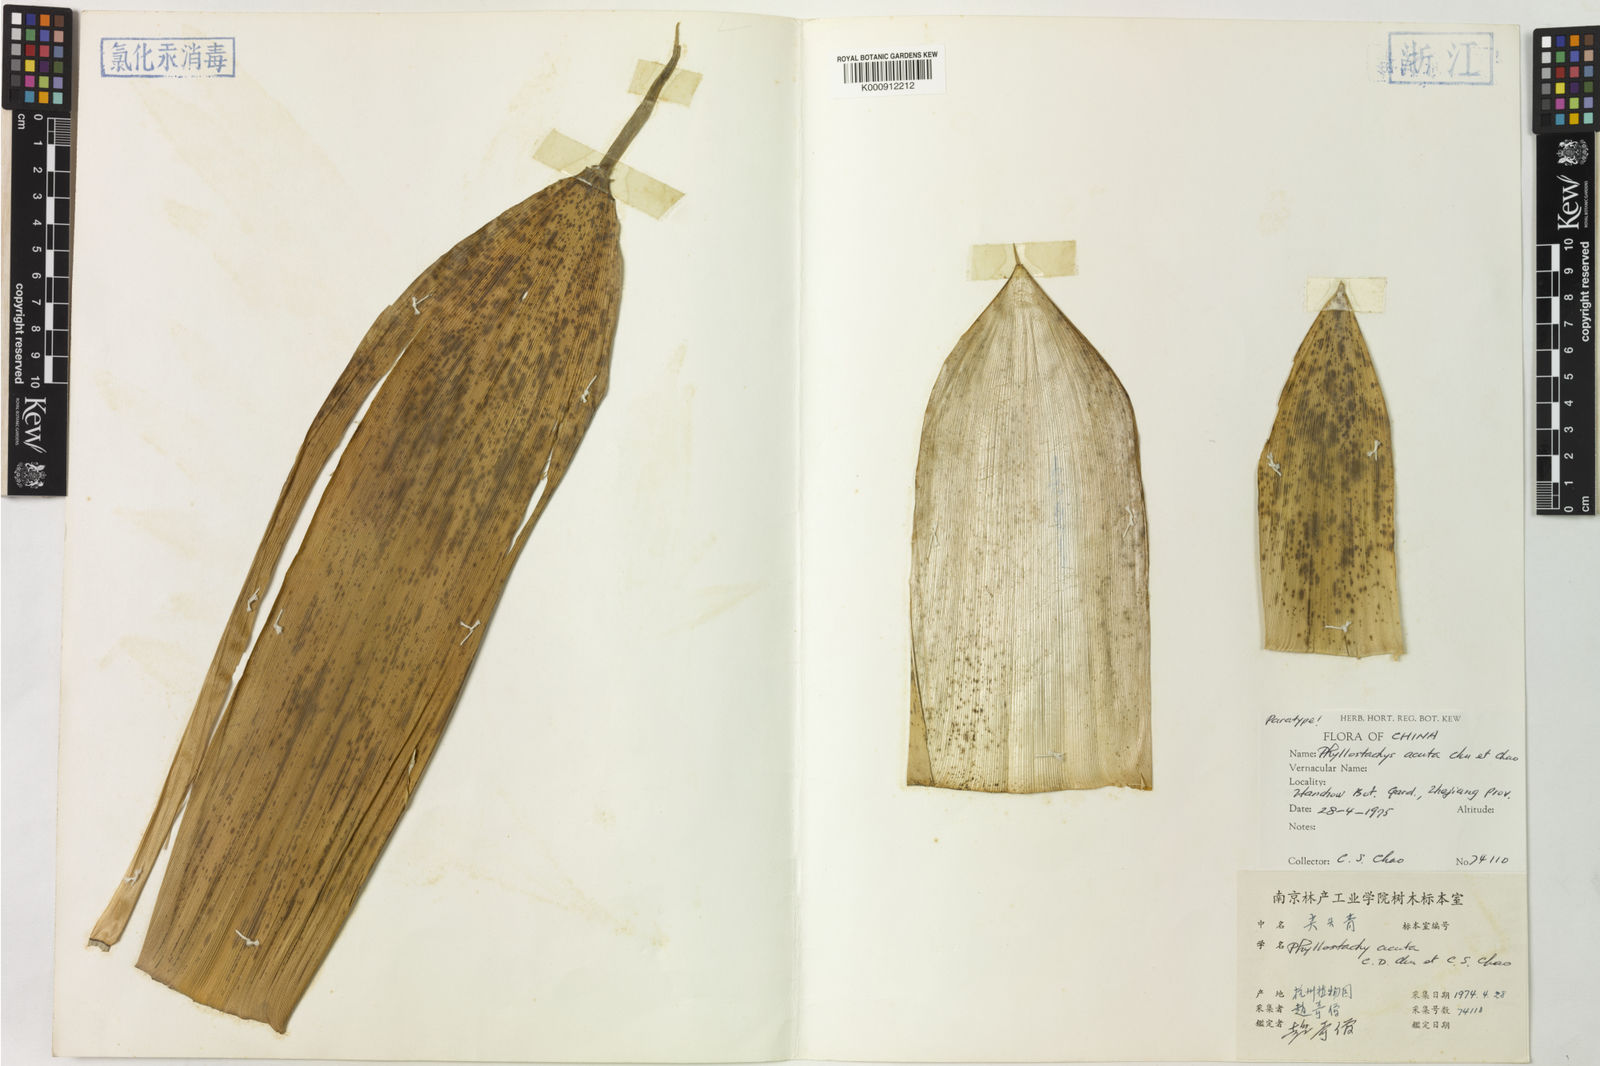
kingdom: Plantae
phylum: Tracheophyta
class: Liliopsida
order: Poales
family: Poaceae
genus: Phyllostachys
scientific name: Phyllostachys acuta
